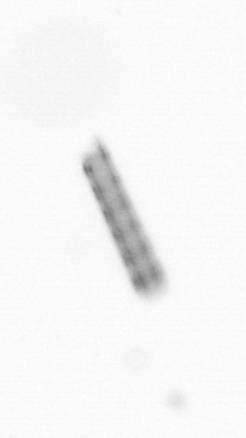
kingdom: Chromista
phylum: Ochrophyta
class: Bacillariophyceae
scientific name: Bacillariophyceae
